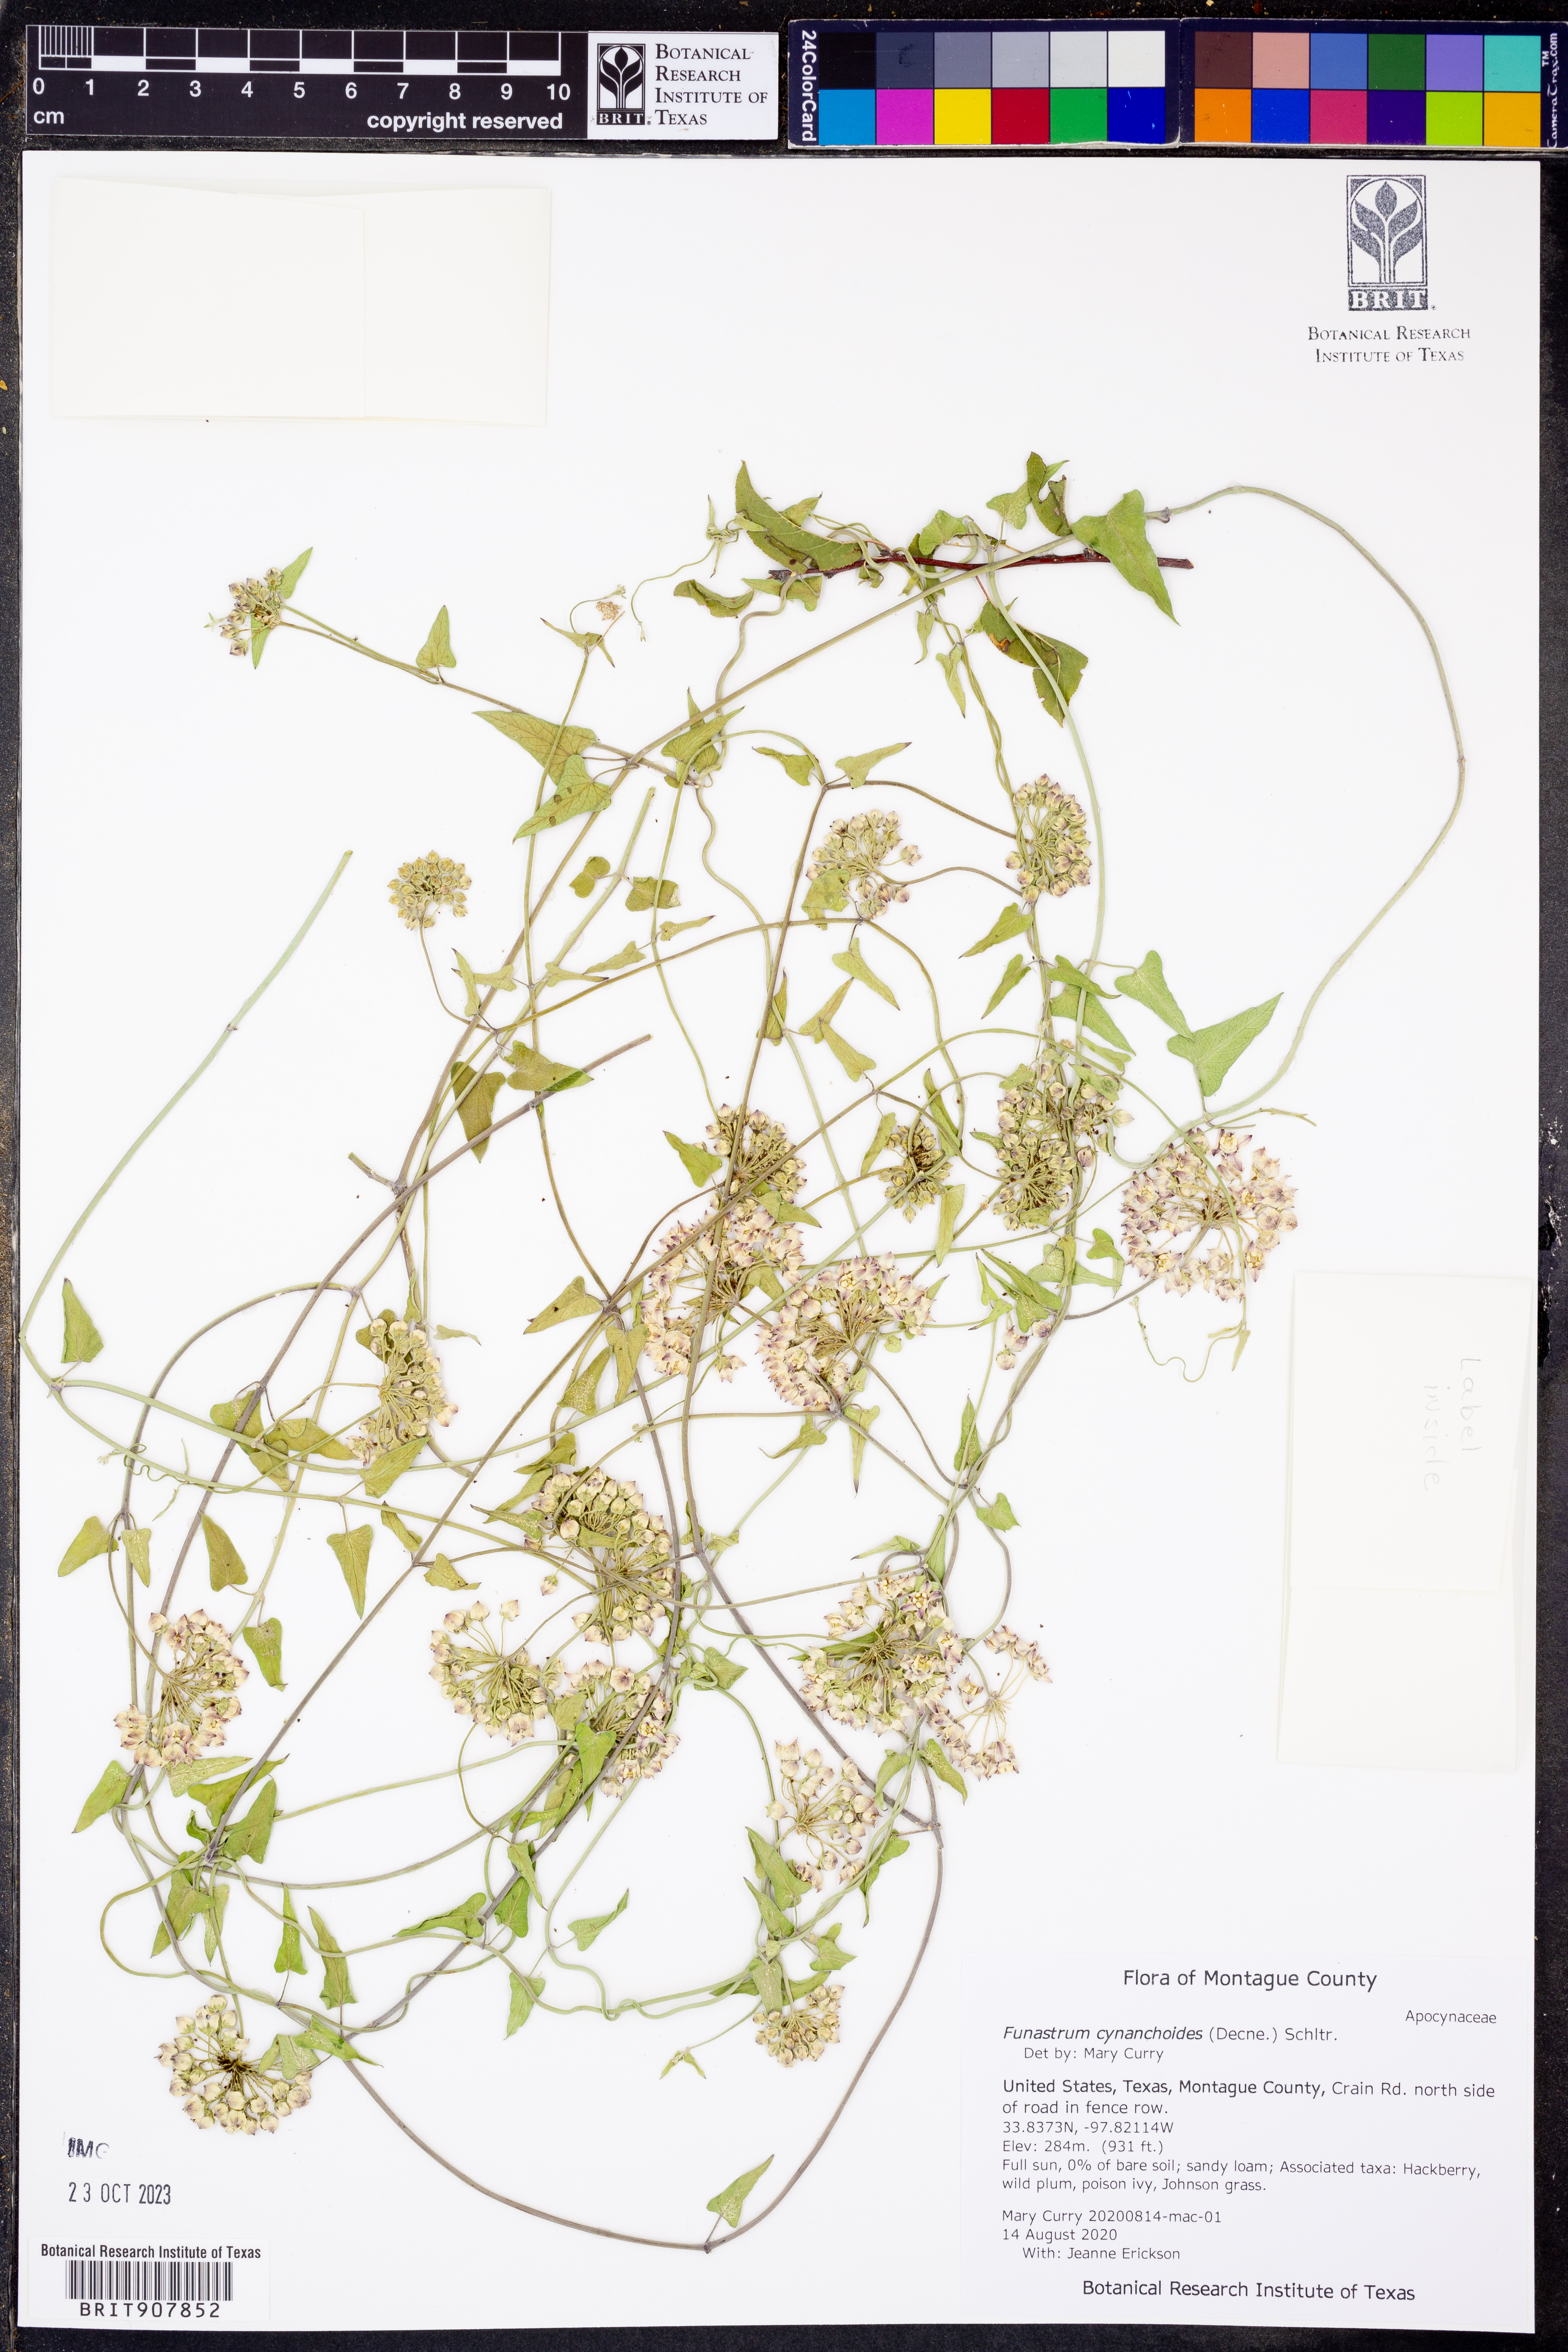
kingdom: Plantae
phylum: Tracheophyta
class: Magnoliopsida
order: Gentianales
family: Apocynaceae
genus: Funastrum
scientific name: Funastrum cynanchoides
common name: Climbing-milkweed
